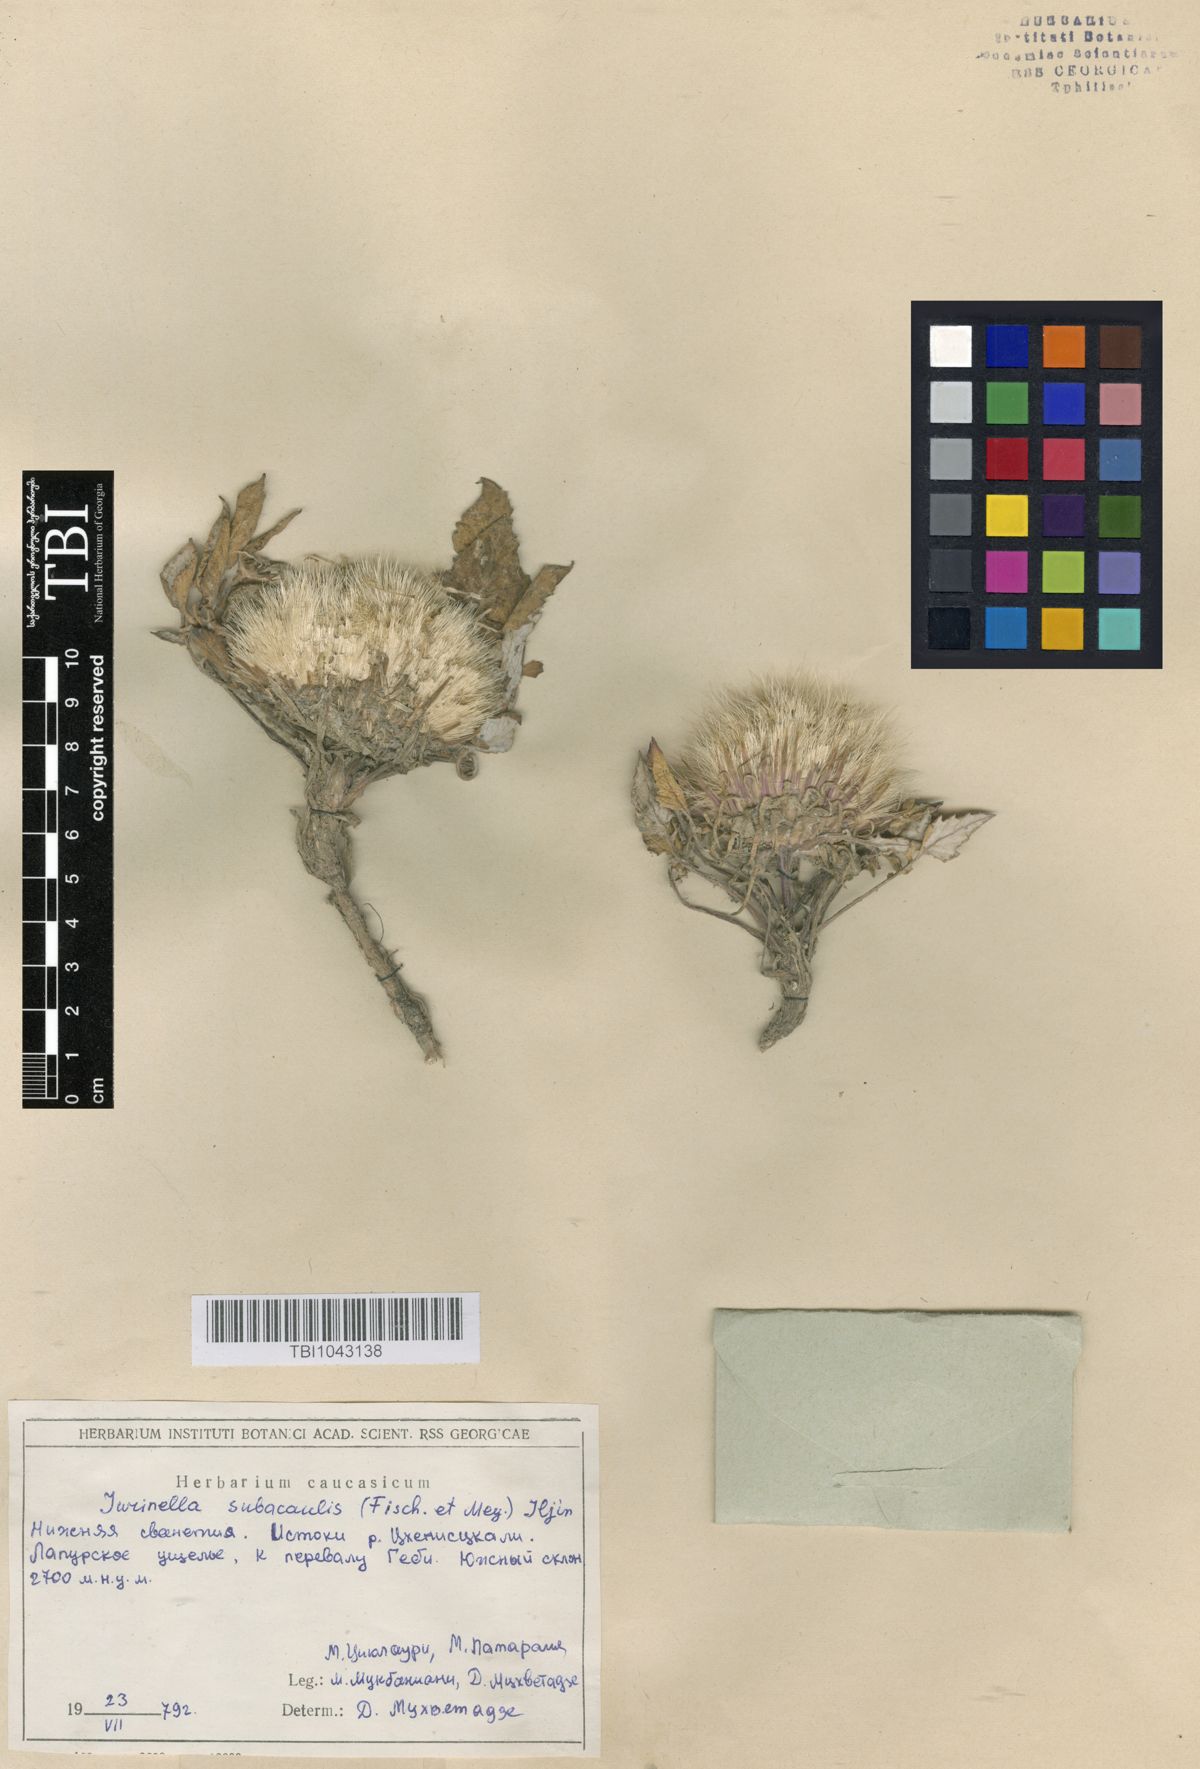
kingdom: Plantae
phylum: Tracheophyta
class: Magnoliopsida
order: Asterales
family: Asteraceae
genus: Jurinea
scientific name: Jurinea moschus
